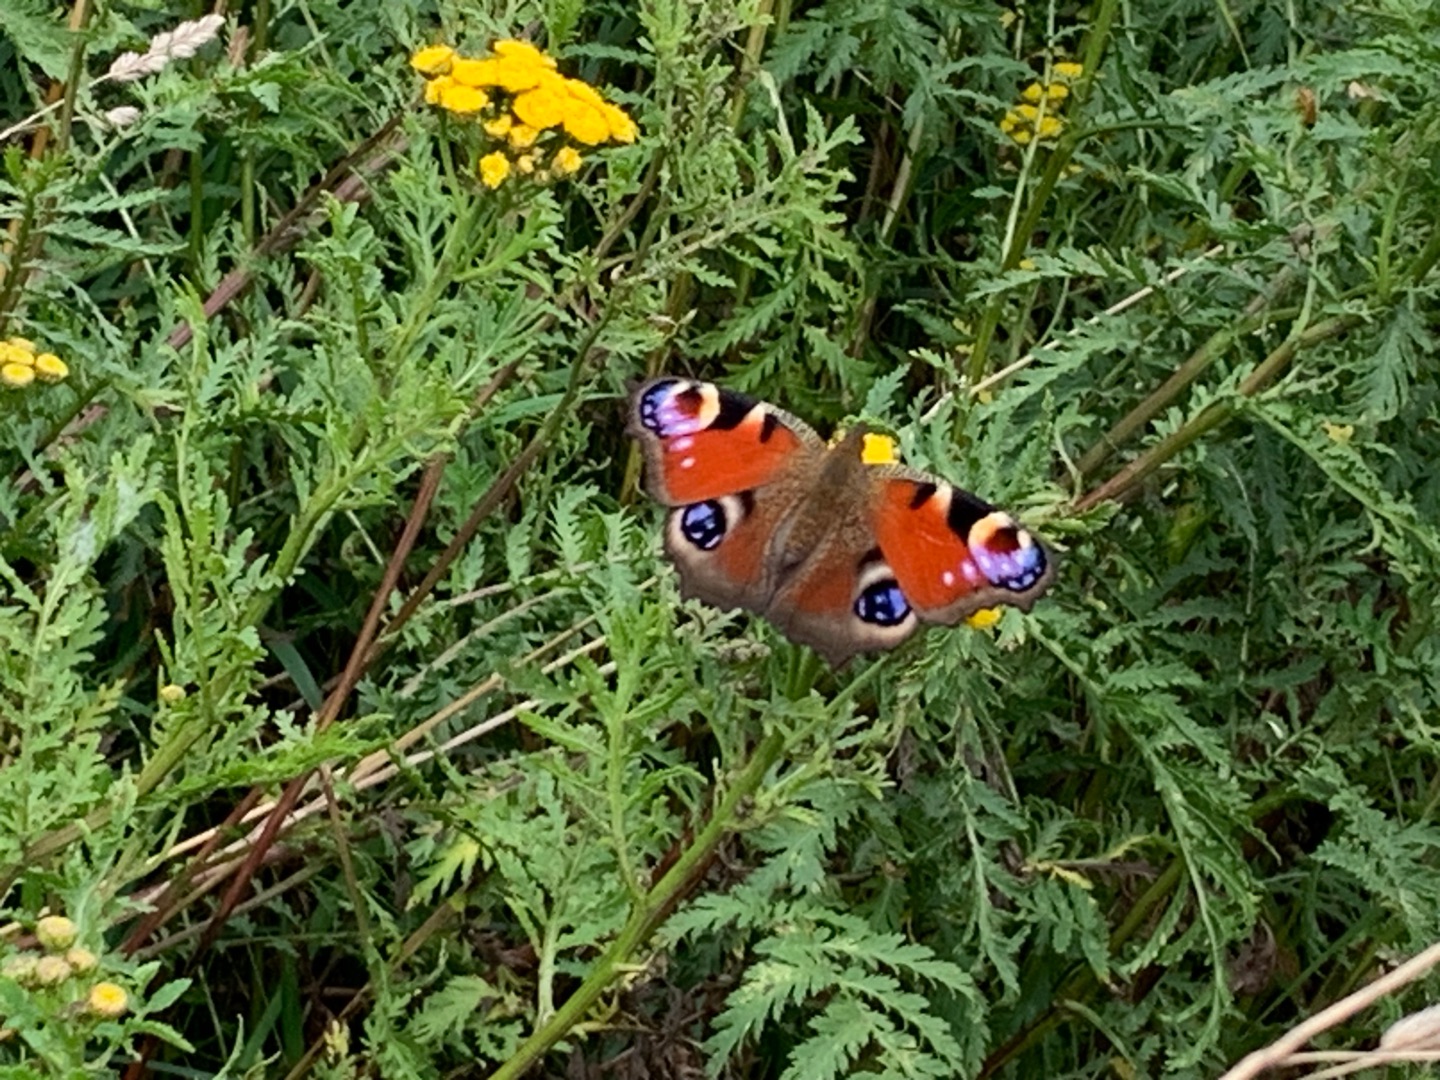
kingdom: Animalia
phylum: Arthropoda
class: Insecta
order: Lepidoptera
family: Nymphalidae
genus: Aglais
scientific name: Aglais io
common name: Dagpåfugleøje
